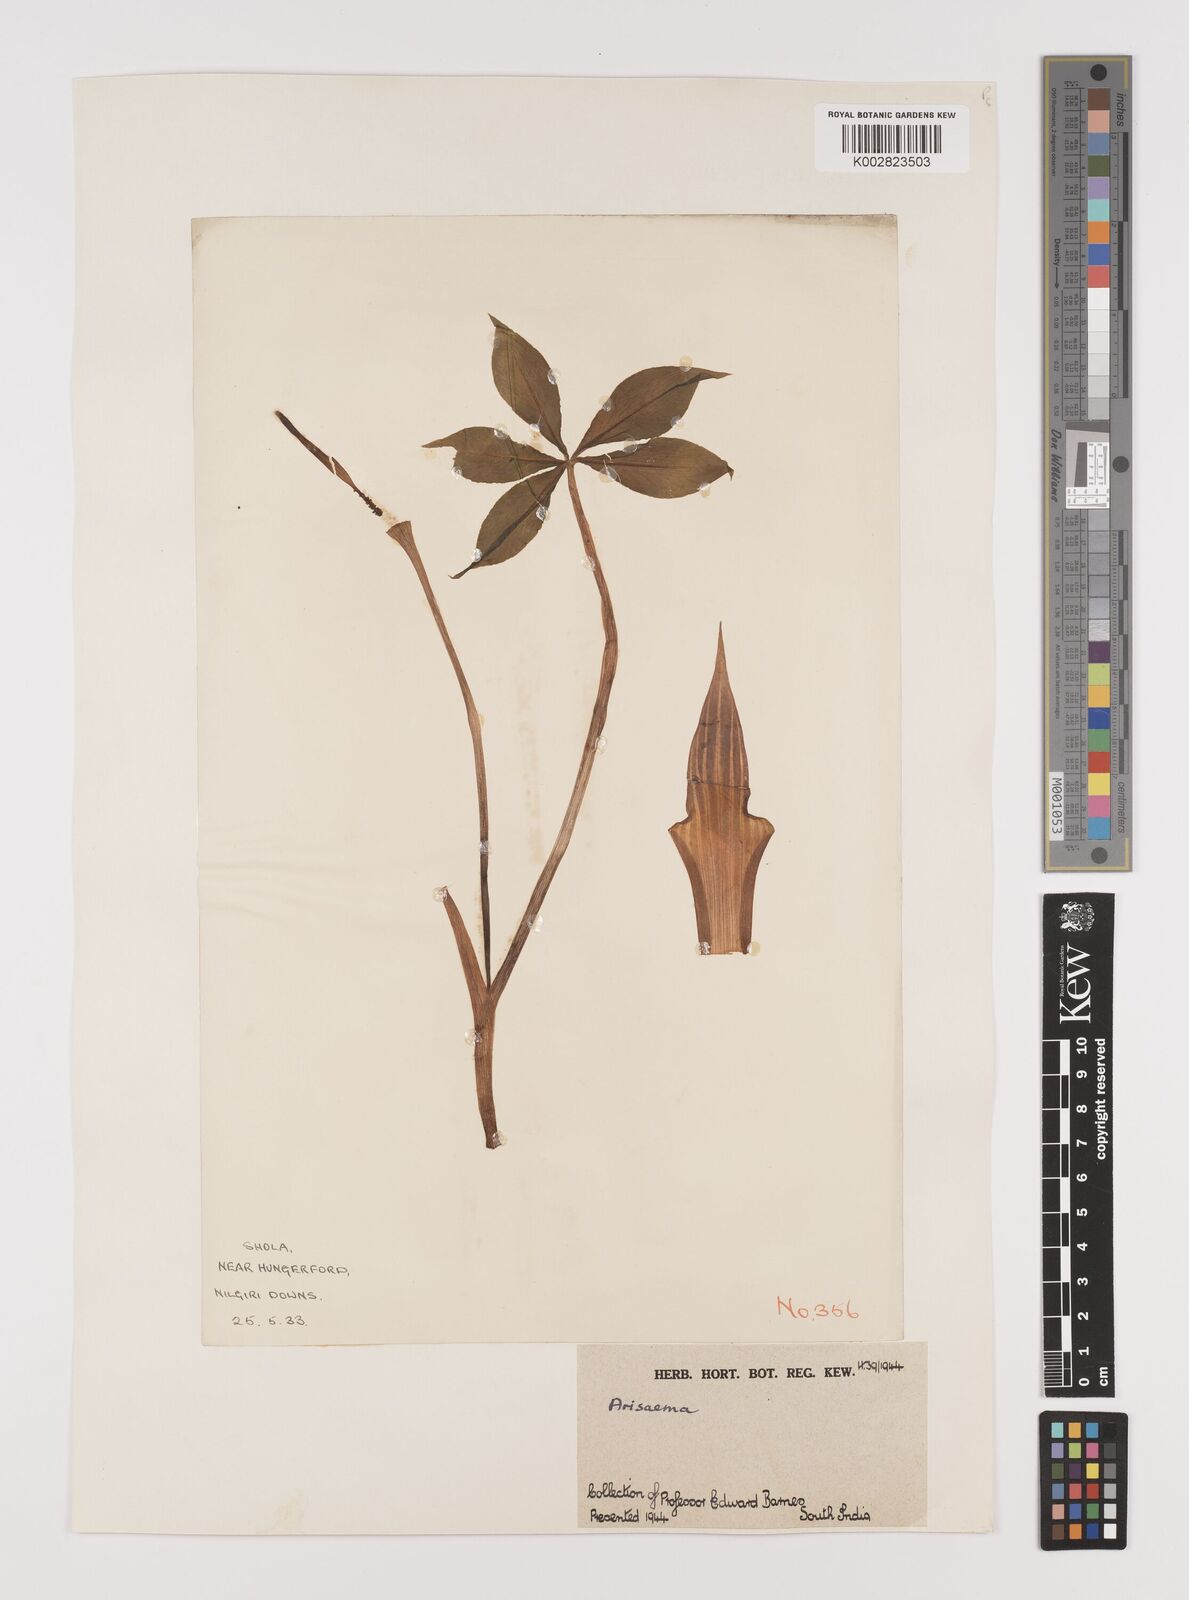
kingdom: Plantae
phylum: Tracheophyta
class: Liliopsida
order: Alismatales
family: Araceae
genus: Arisaema
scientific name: Arisaema
